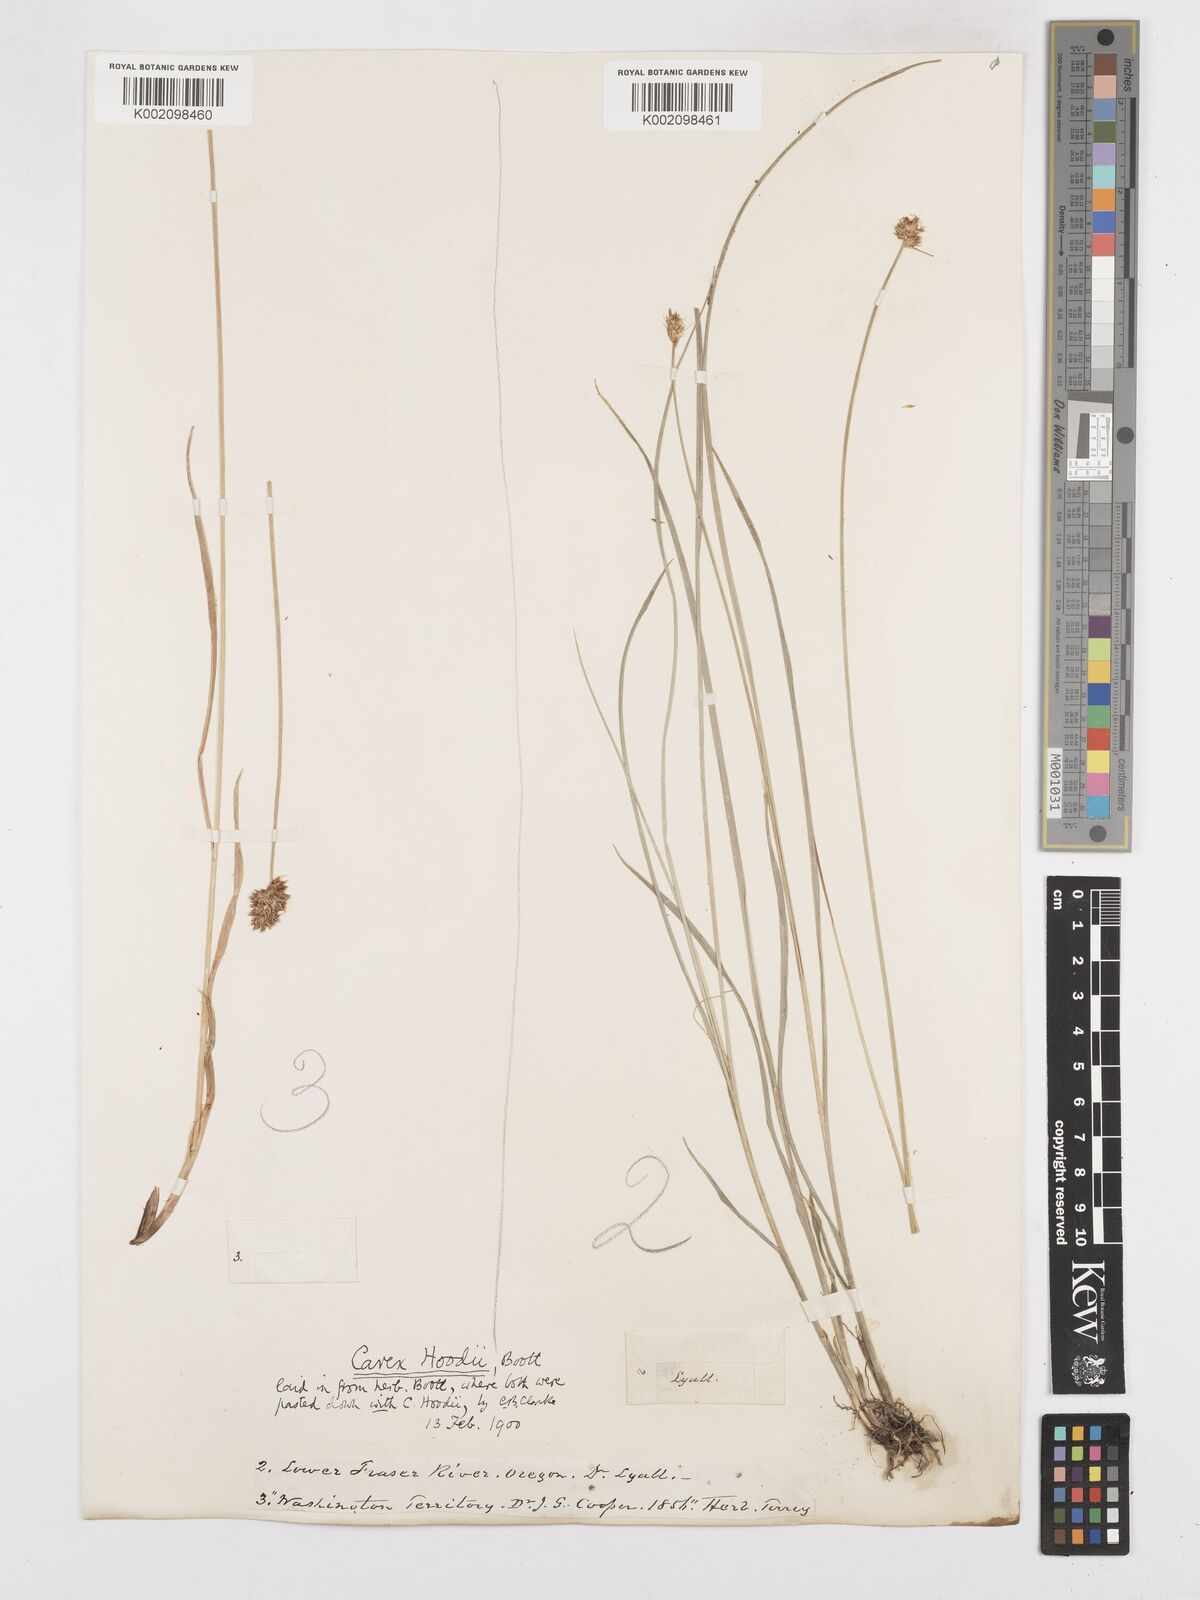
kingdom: Plantae
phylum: Tracheophyta
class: Liliopsida
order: Poales
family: Cyperaceae
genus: Carex
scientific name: Carex hoodii
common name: Hood's sedge
